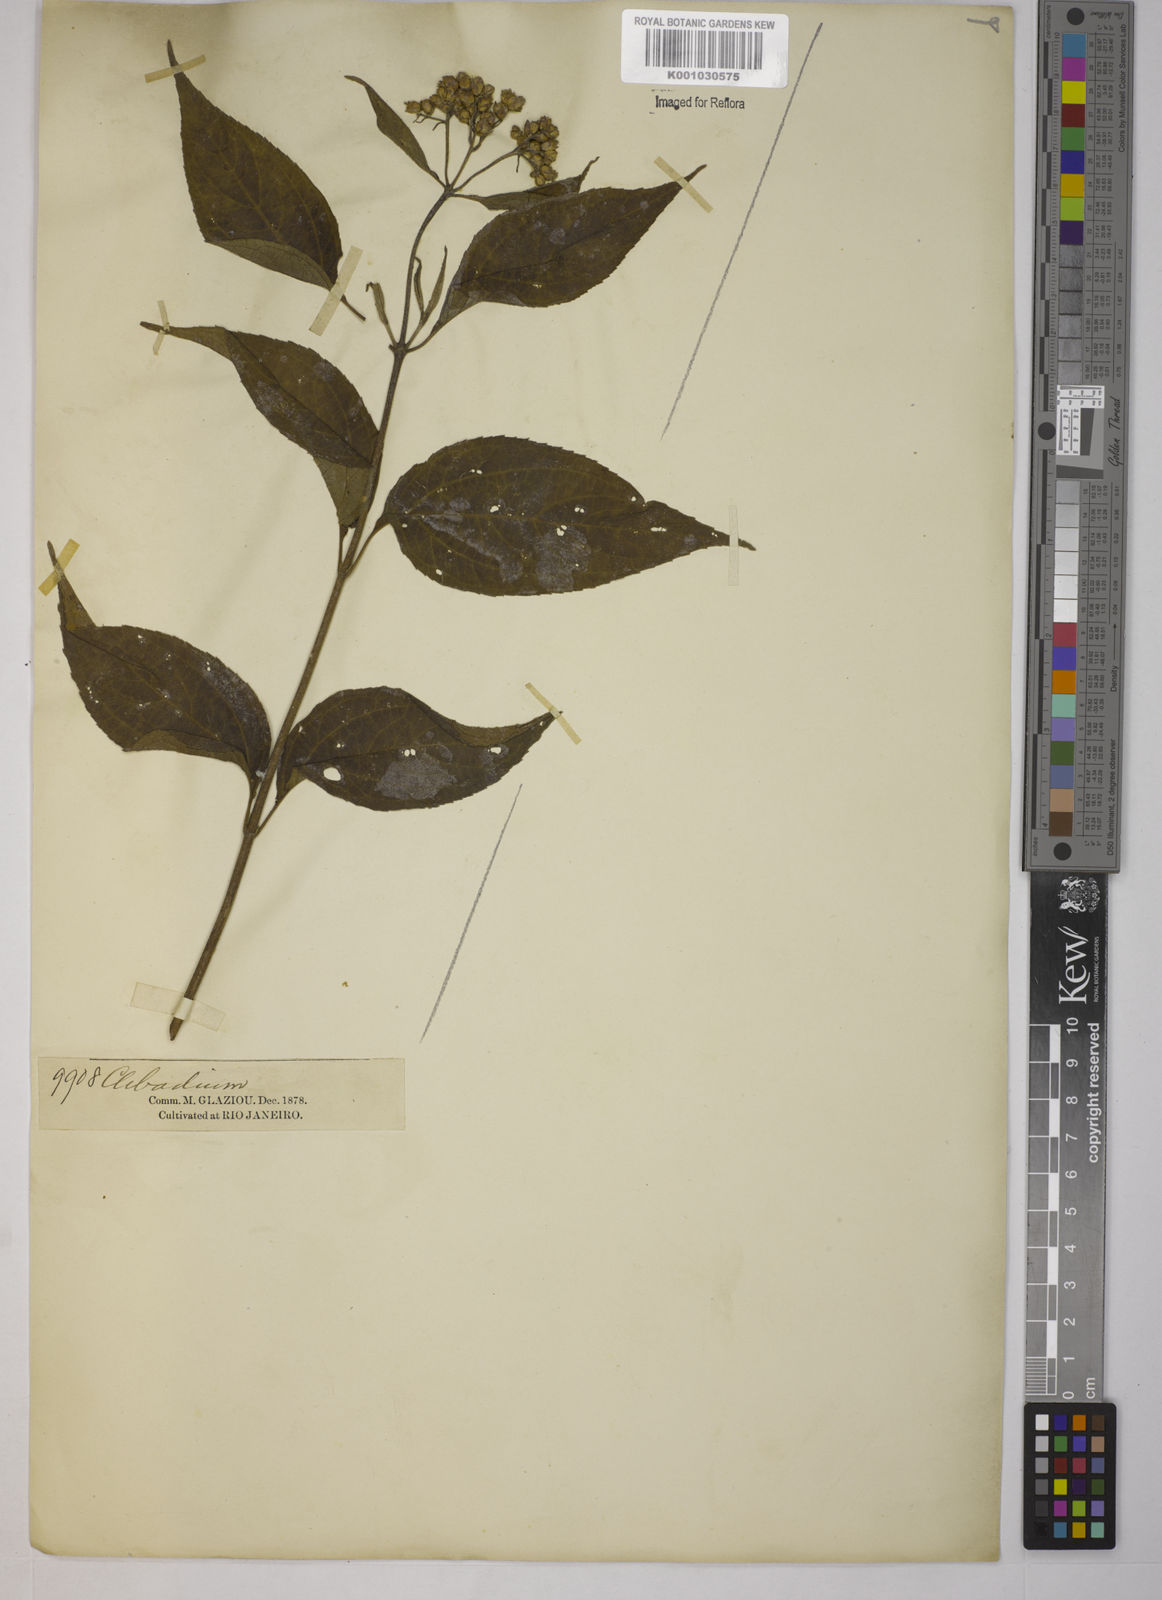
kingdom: Plantae
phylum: Tracheophyta
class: Magnoliopsida
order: Asterales
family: Asteraceae
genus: Clibadium
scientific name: Clibadium
